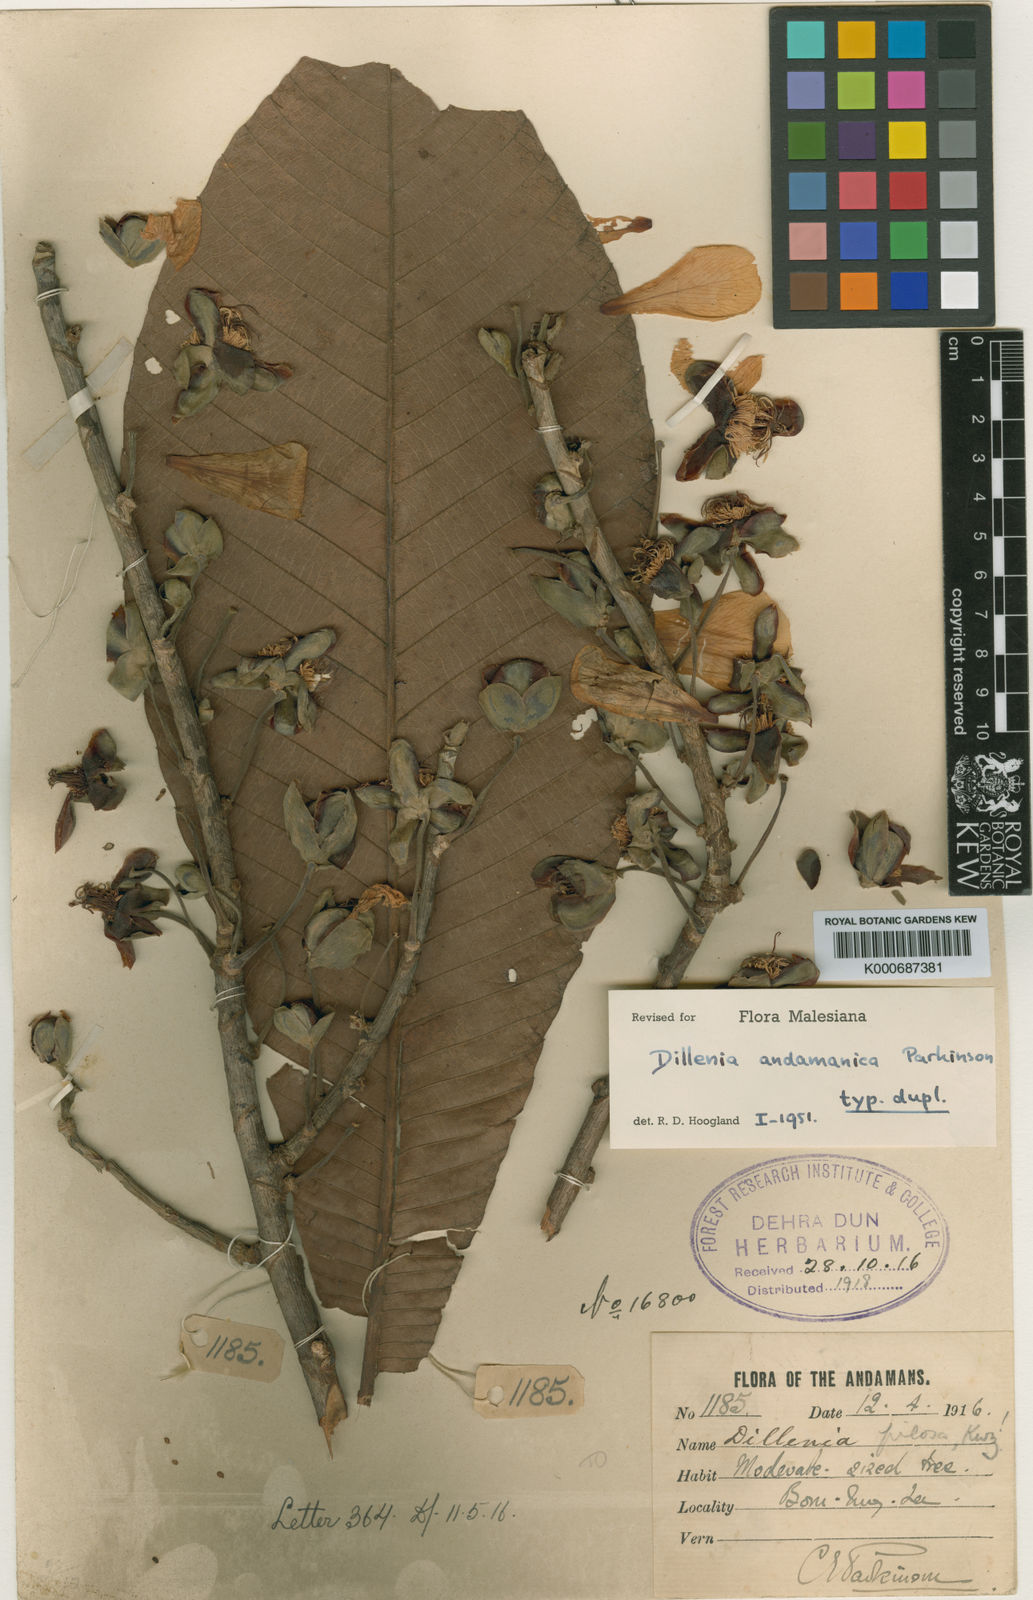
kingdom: Plantae
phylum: Tracheophyta
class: Magnoliopsida
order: Dilleniales
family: Dilleniaceae
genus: Dillenia
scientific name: Dillenia scabrella
